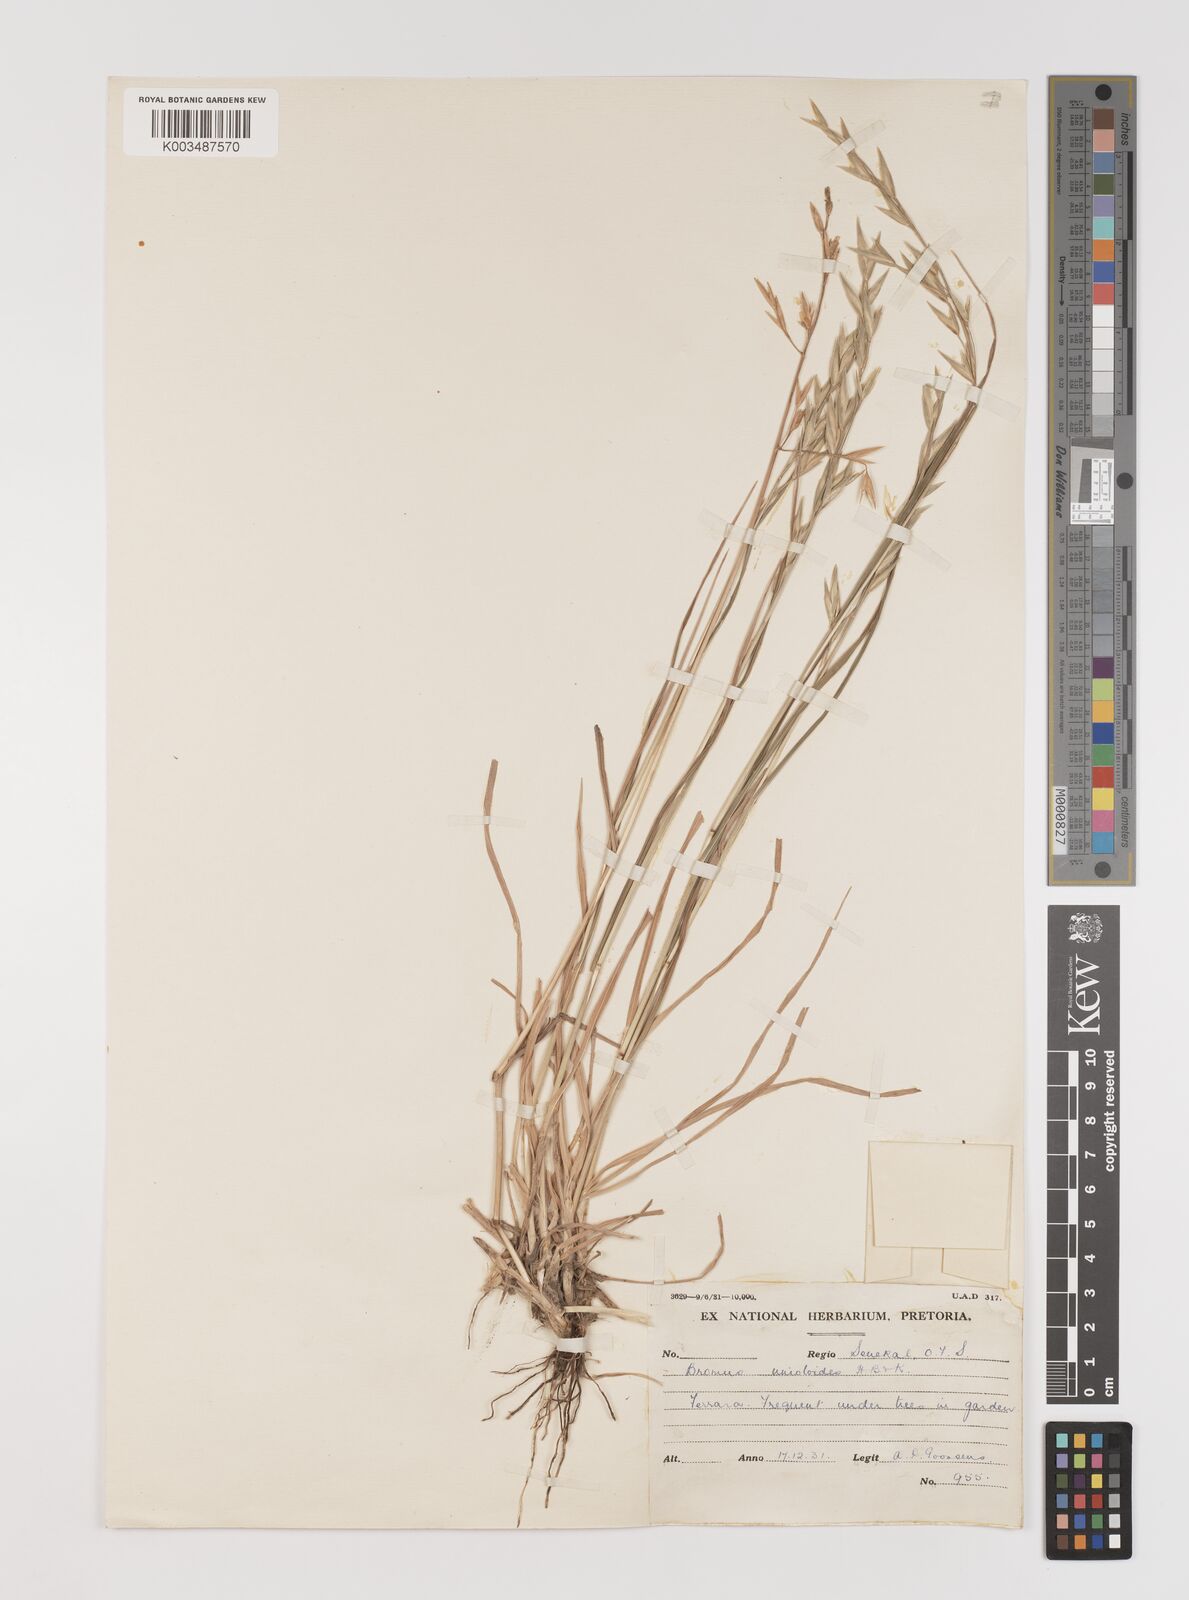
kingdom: Plantae
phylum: Tracheophyta
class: Liliopsida
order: Poales
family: Poaceae
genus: Bromus
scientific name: Bromus catharticus
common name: Rescuegrass
